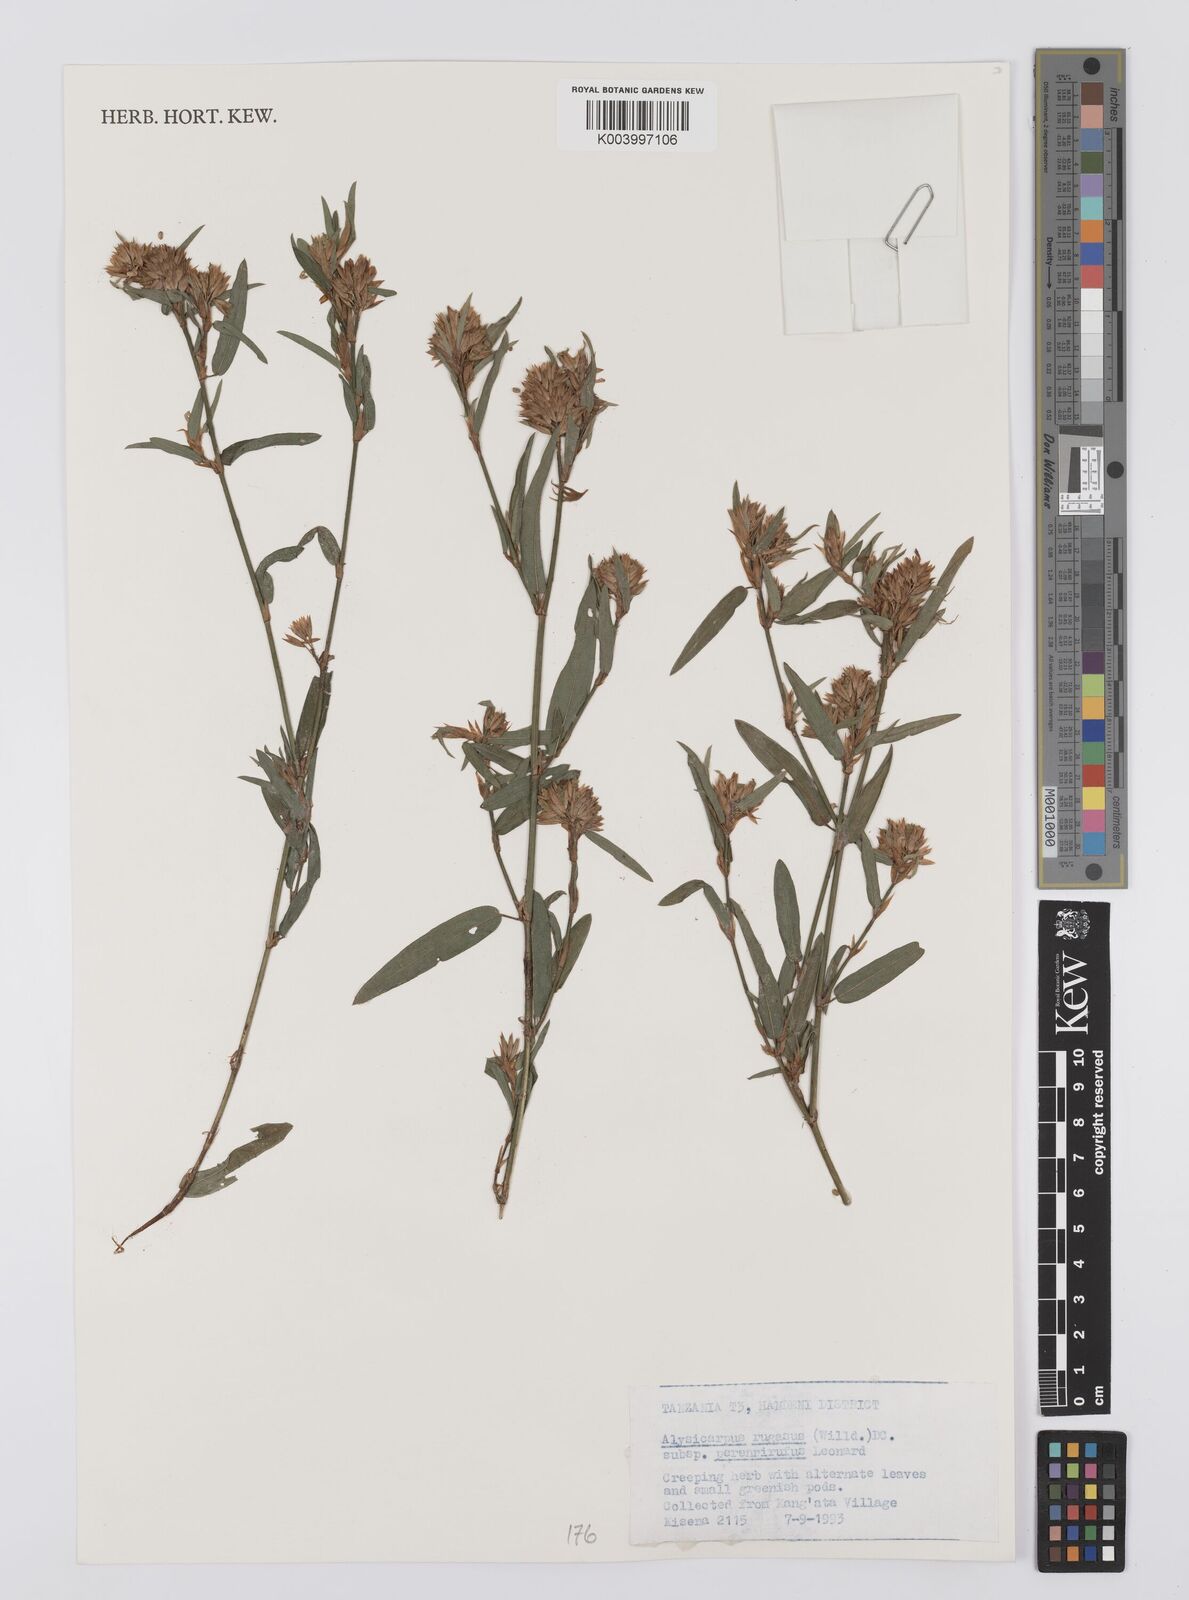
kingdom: Plantae
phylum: Tracheophyta
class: Magnoliopsida
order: Fabales
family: Fabaceae
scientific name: Fabaceae
